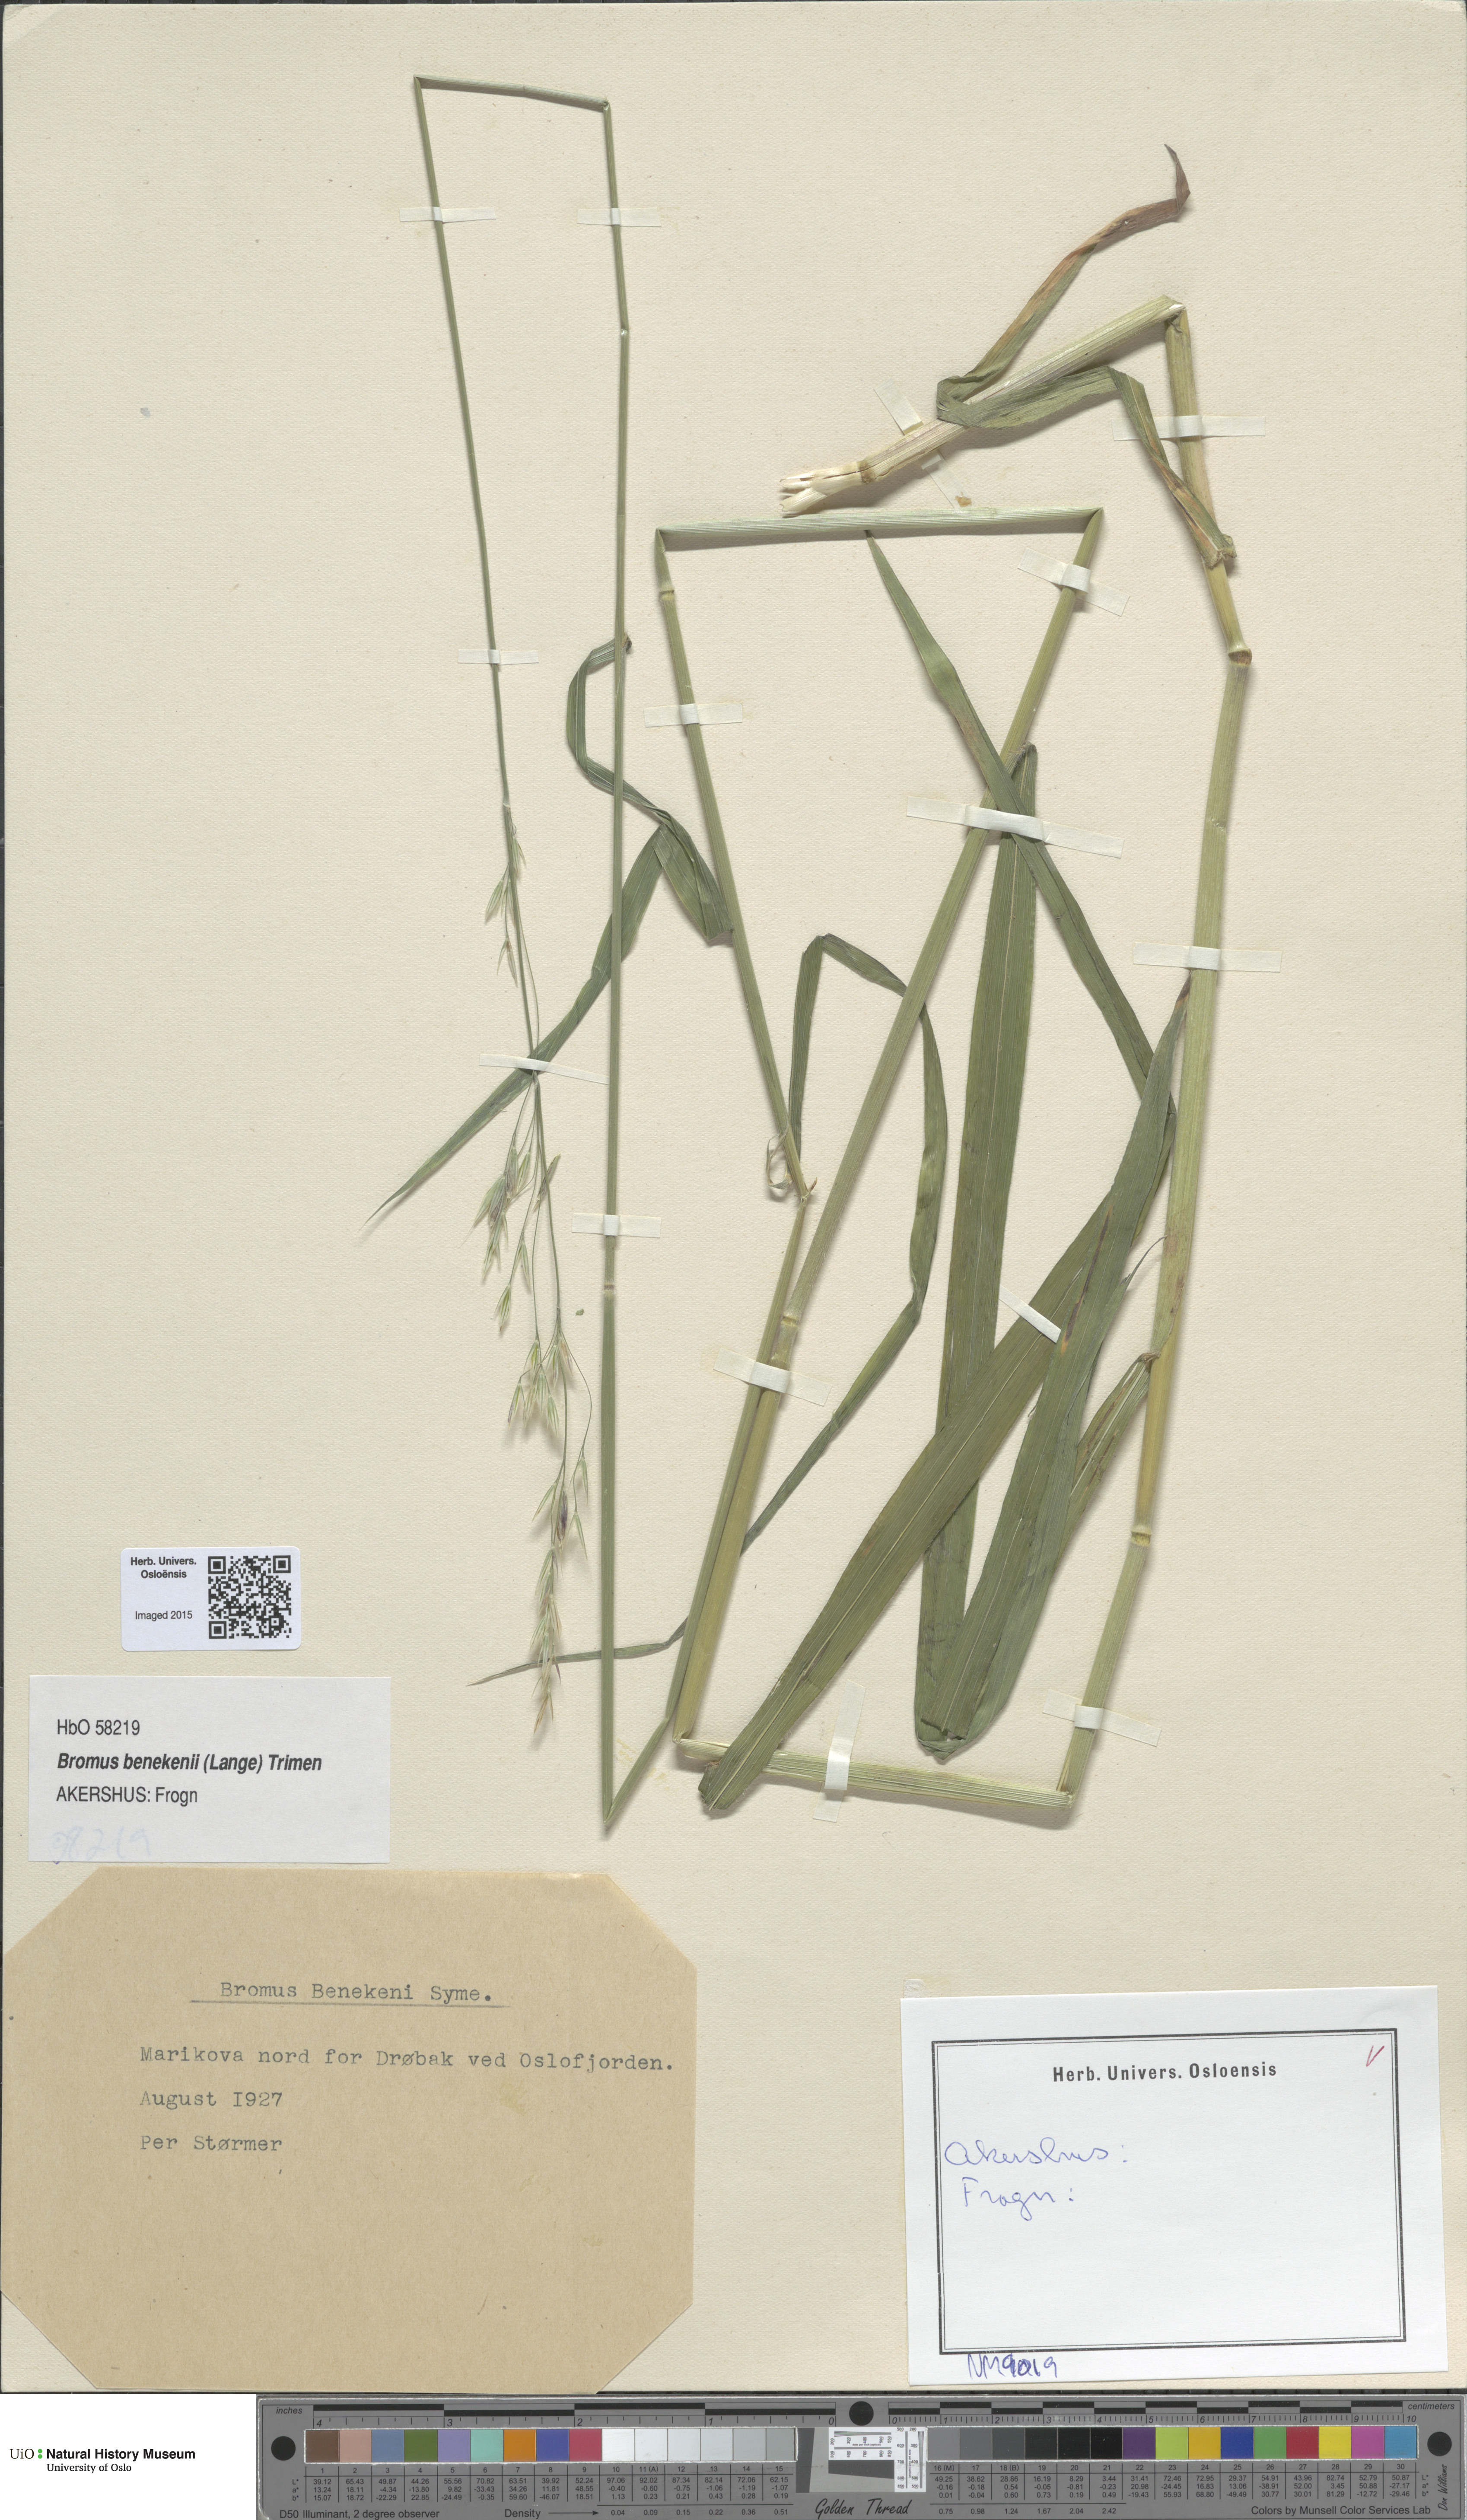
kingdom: Plantae
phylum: Tracheophyta
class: Liliopsida
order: Poales
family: Poaceae
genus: Bromus
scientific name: Bromus benekenii
